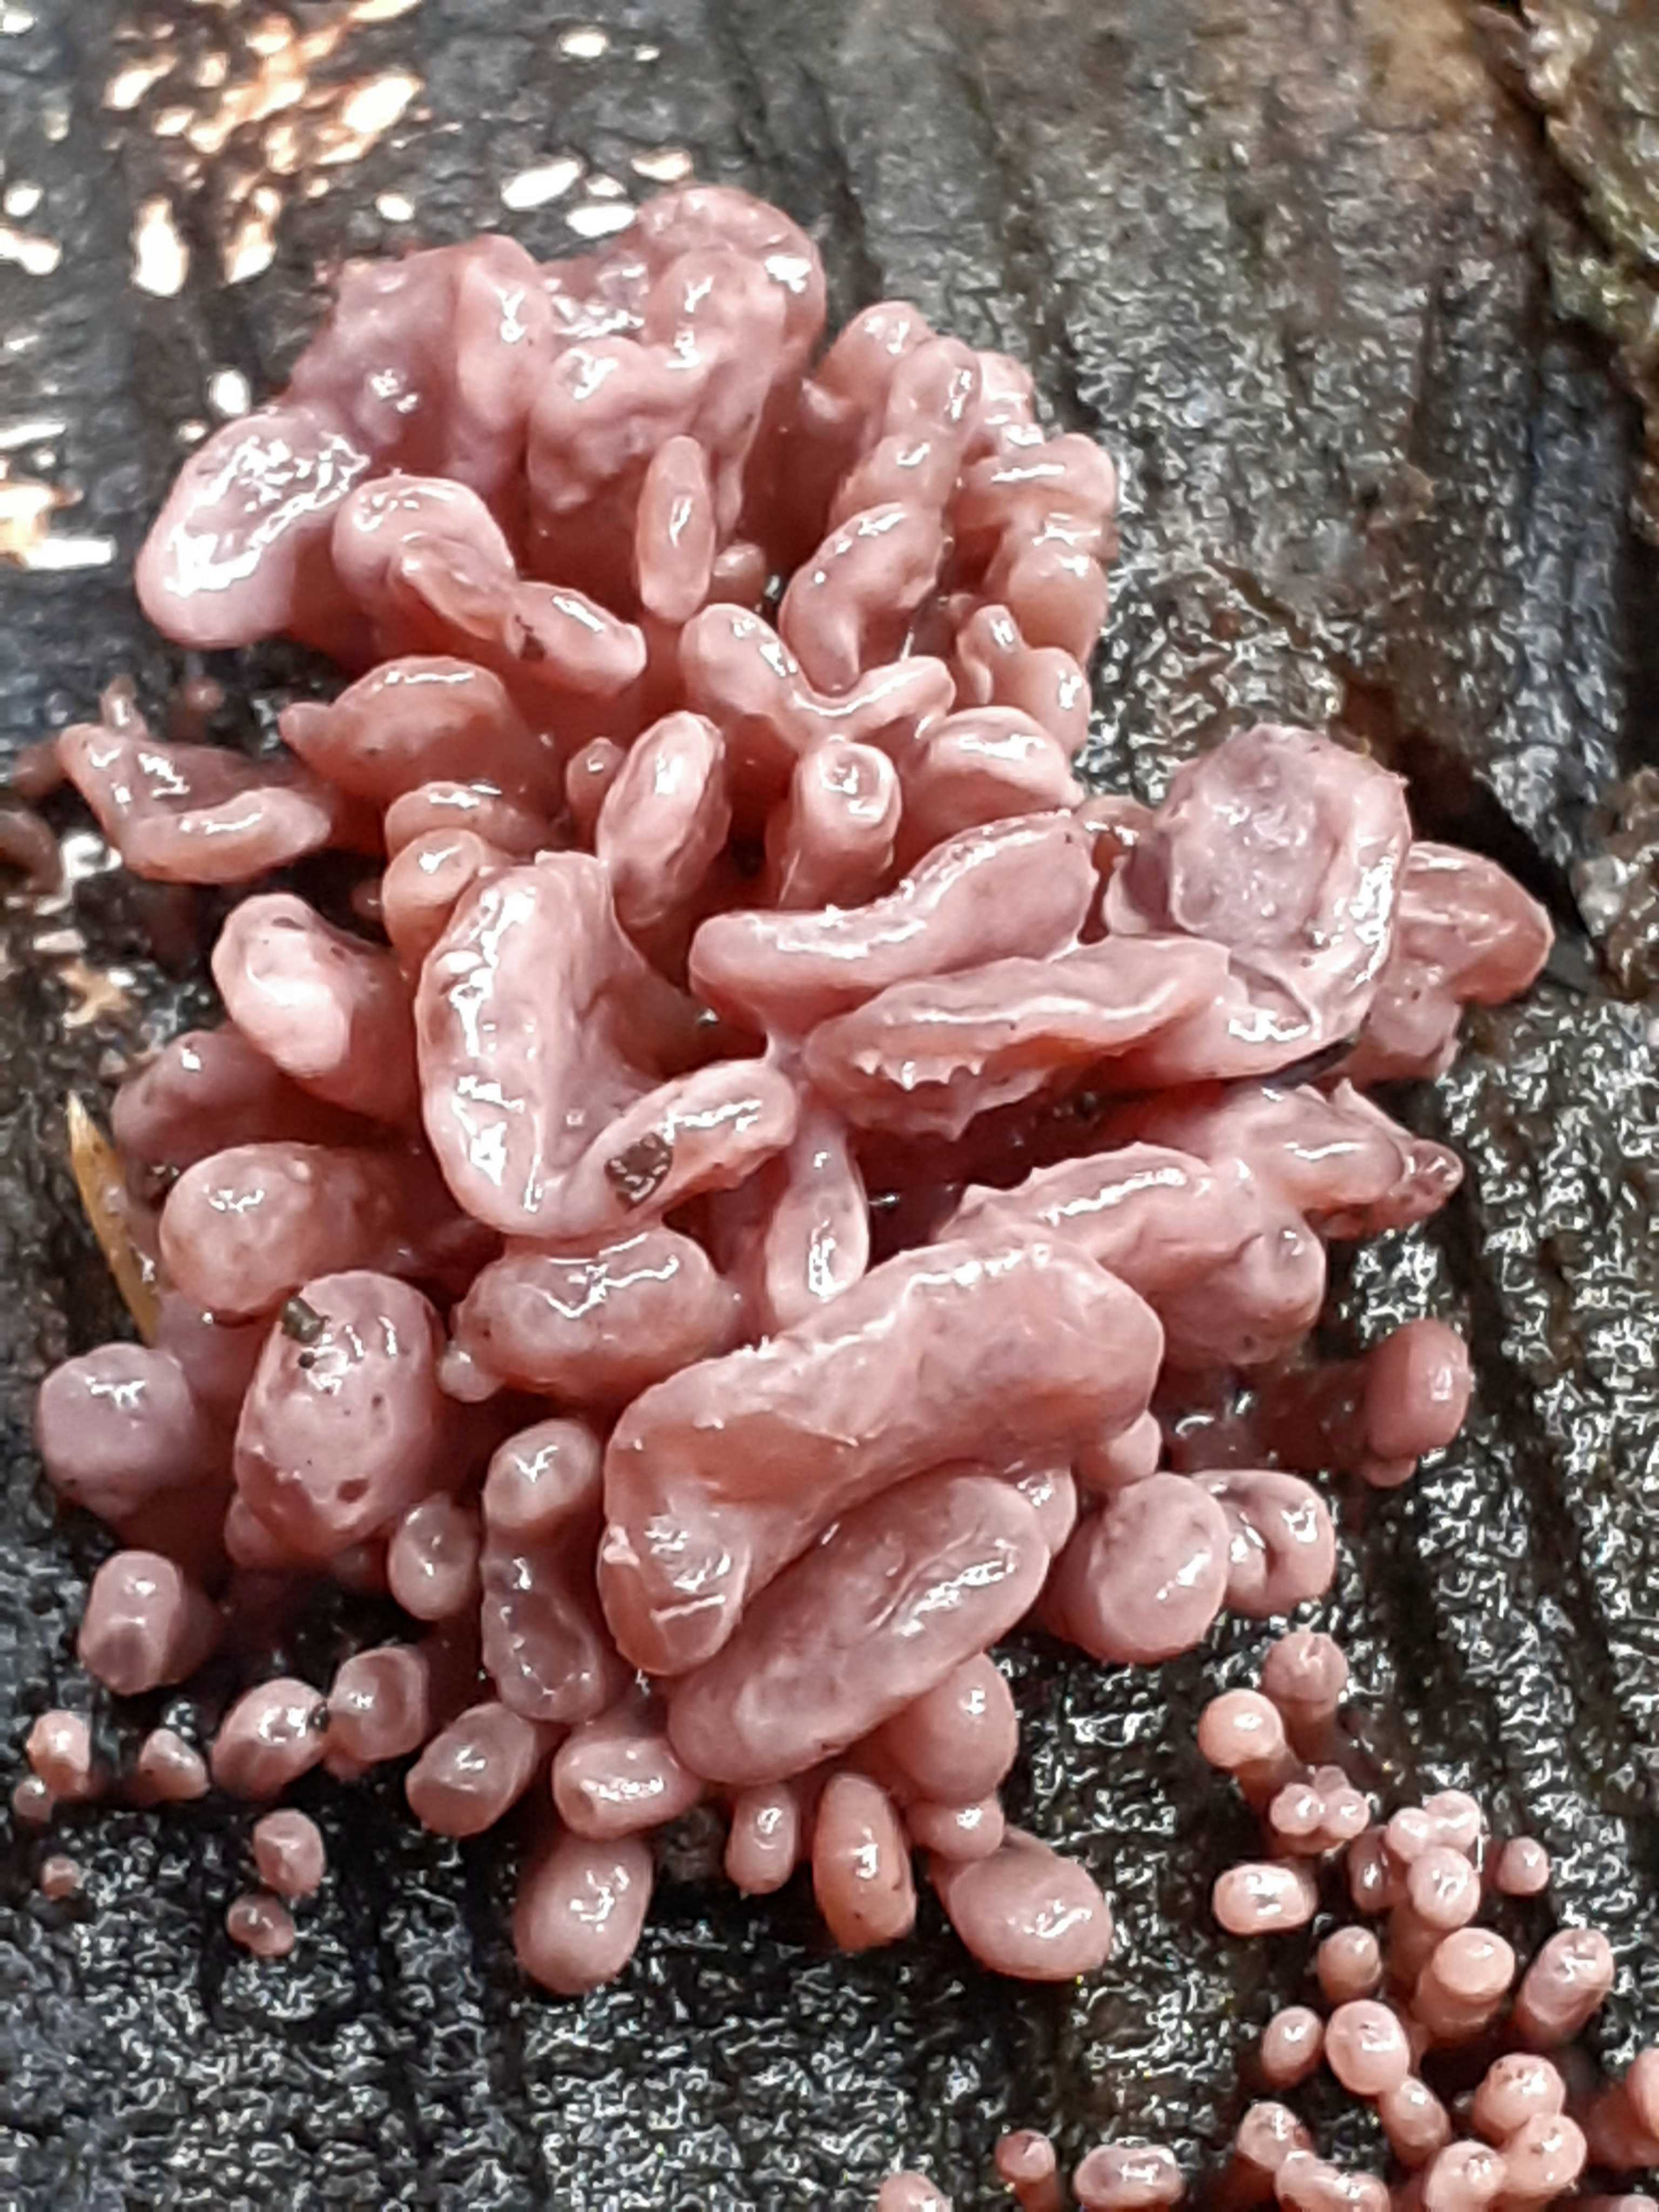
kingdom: Fungi
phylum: Ascomycota
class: Leotiomycetes
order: Helotiales
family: Gelatinodiscaceae
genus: Ascocoryne
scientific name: Ascocoryne sarcoides
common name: rødlilla sejskive
